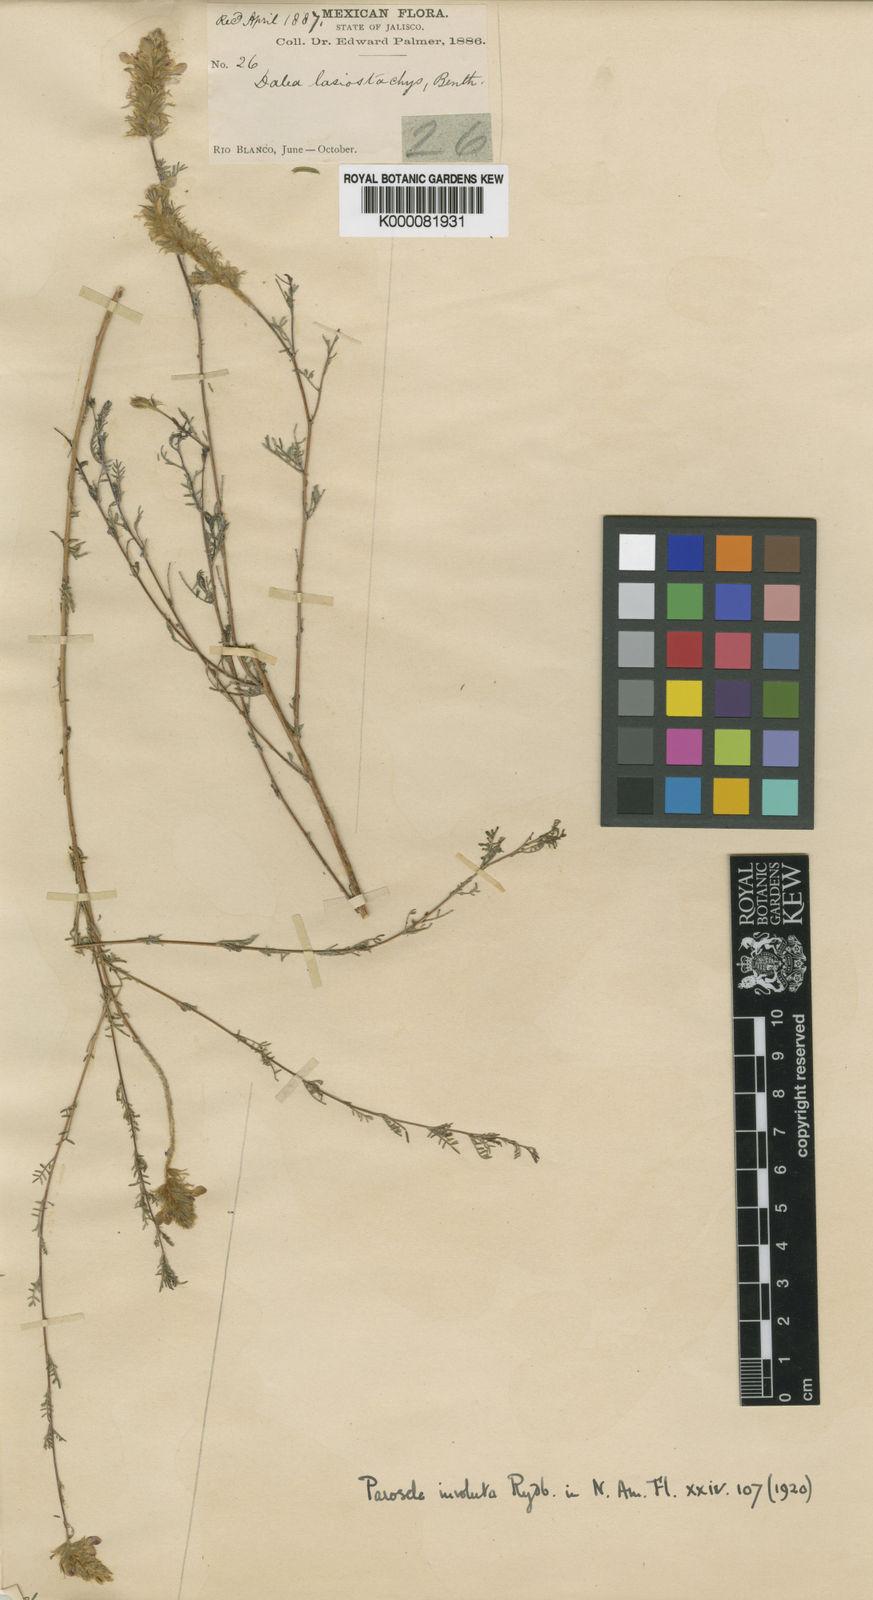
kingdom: Plantae
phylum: Tracheophyta
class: Magnoliopsida
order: Fabales
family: Fabaceae
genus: Dalea
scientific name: Dalea versicolor
